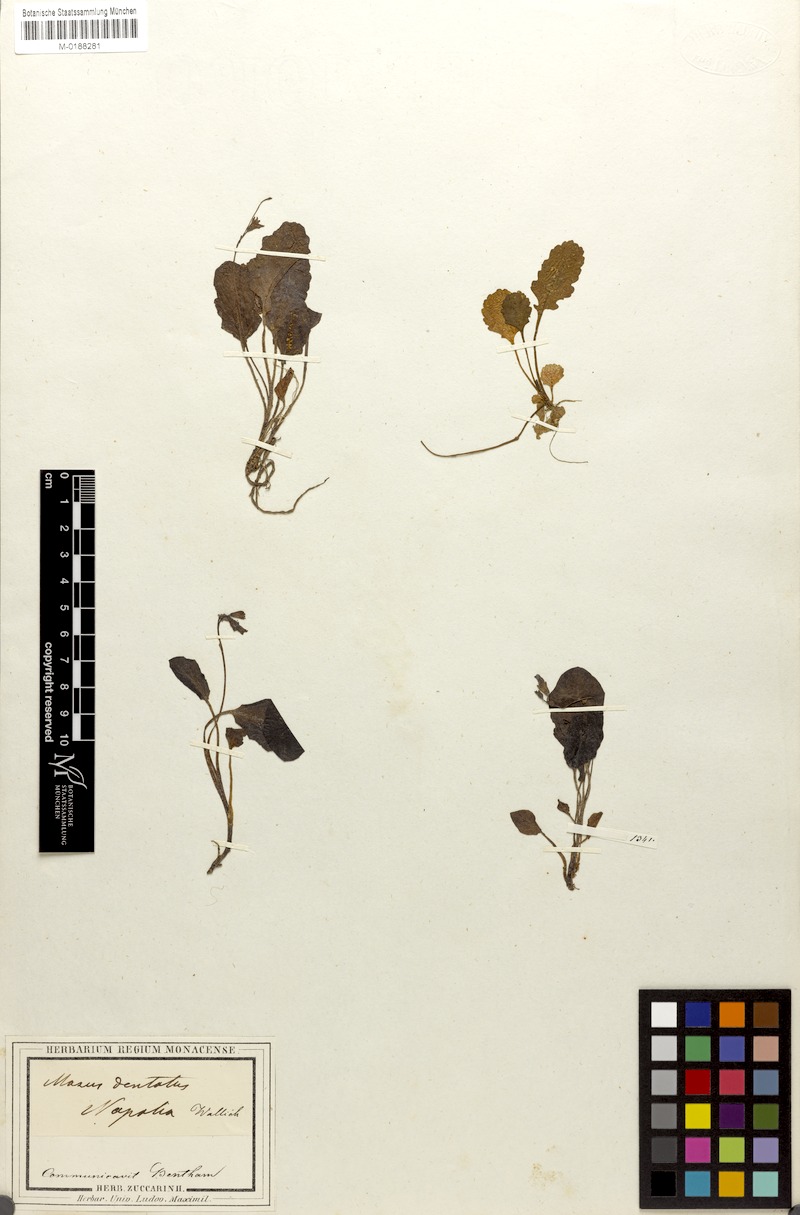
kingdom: Plantae
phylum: Tracheophyta
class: Magnoliopsida
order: Lamiales
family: Mazaceae
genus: Mazus
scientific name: Mazus dentatus
